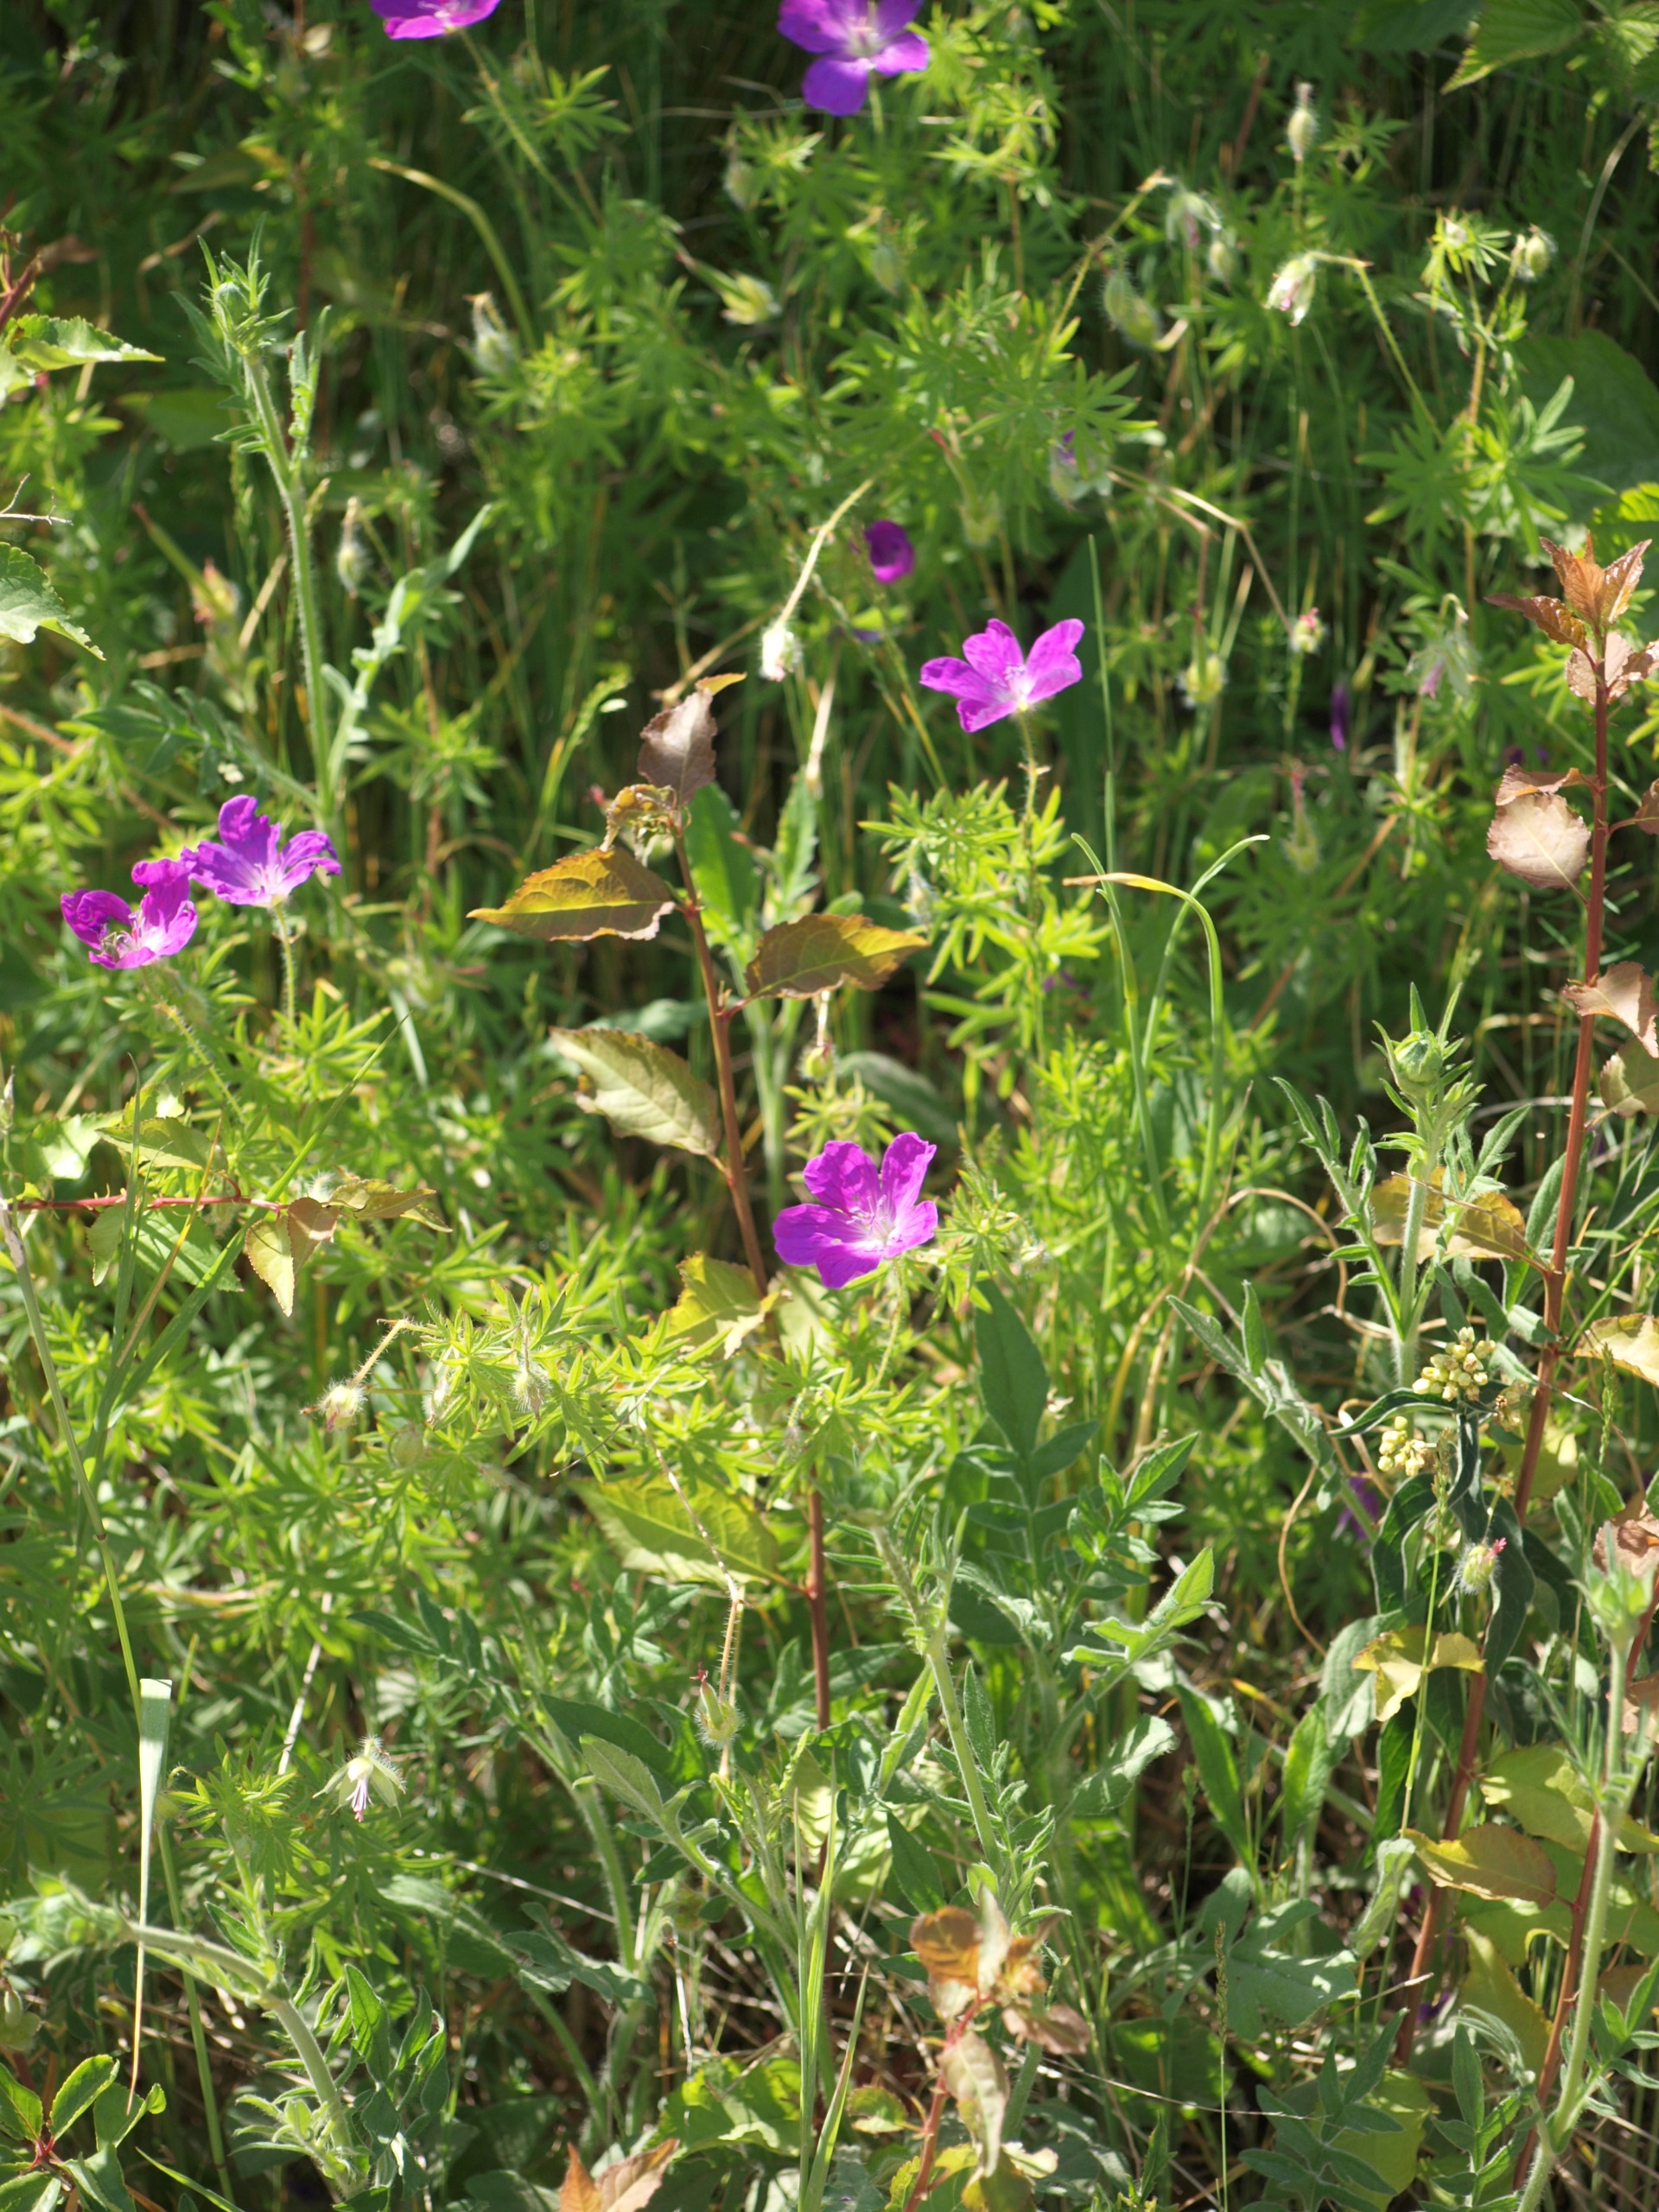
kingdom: Plantae
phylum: Tracheophyta
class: Magnoliopsida
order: Geraniales
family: Geraniaceae
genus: Geranium
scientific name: Geranium sanguineum
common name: Blodrød storkenæb
